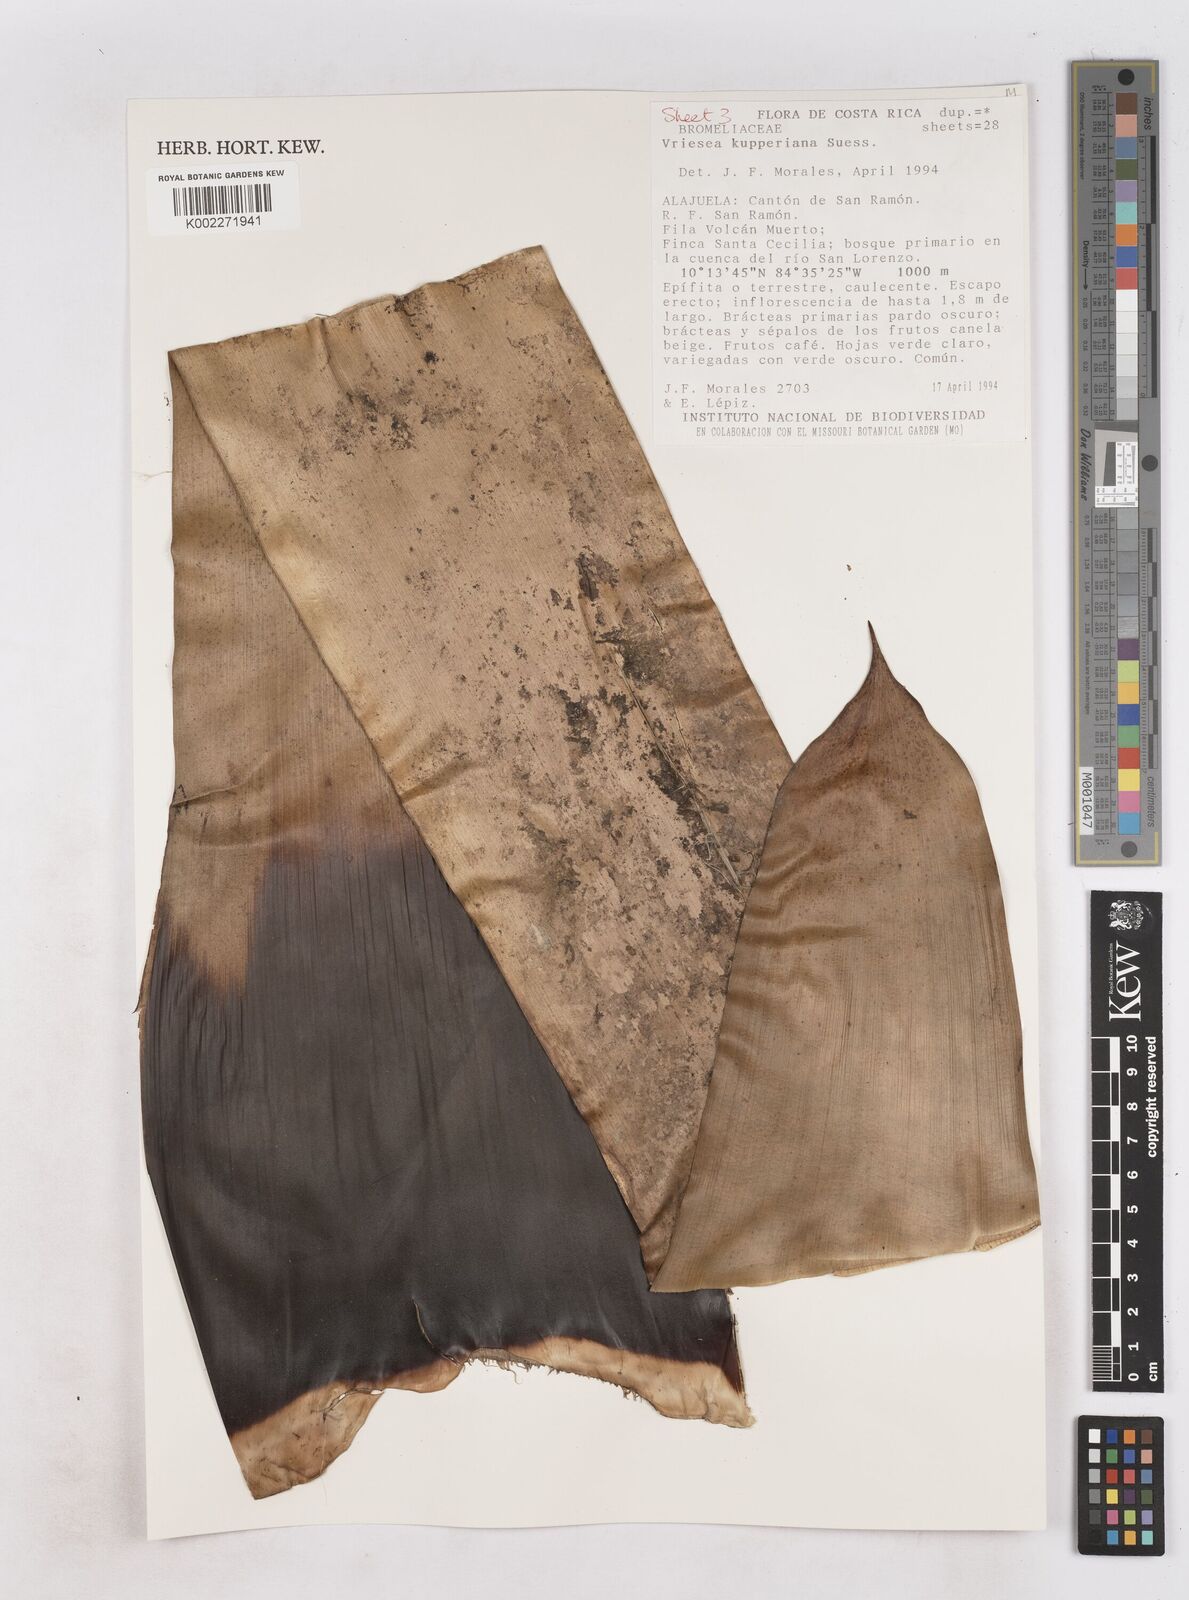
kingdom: Plantae
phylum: Tracheophyta
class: Liliopsida
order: Poales
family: Bromeliaceae
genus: Werauhia
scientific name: Werauhia kupperiana
